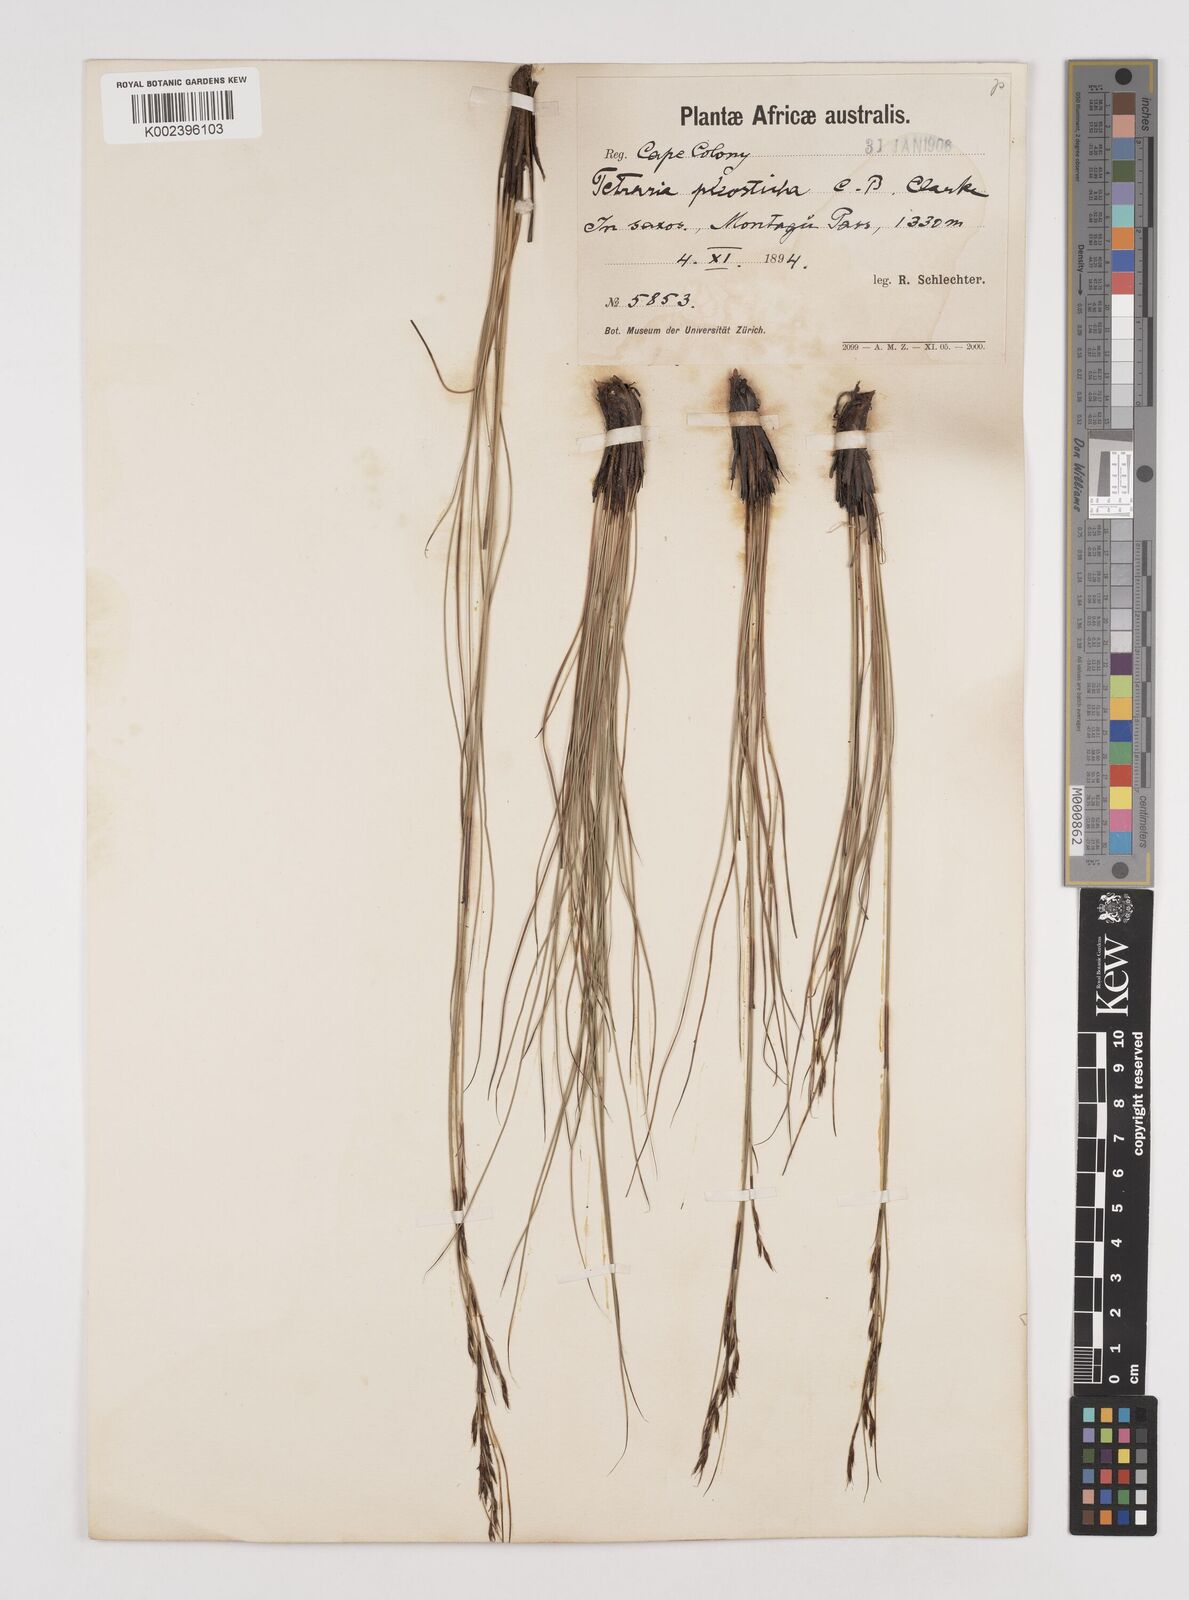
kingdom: Plantae
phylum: Tracheophyta
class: Liliopsida
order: Poales
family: Cyperaceae
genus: Tetraria
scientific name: Tetraria pleosticha
